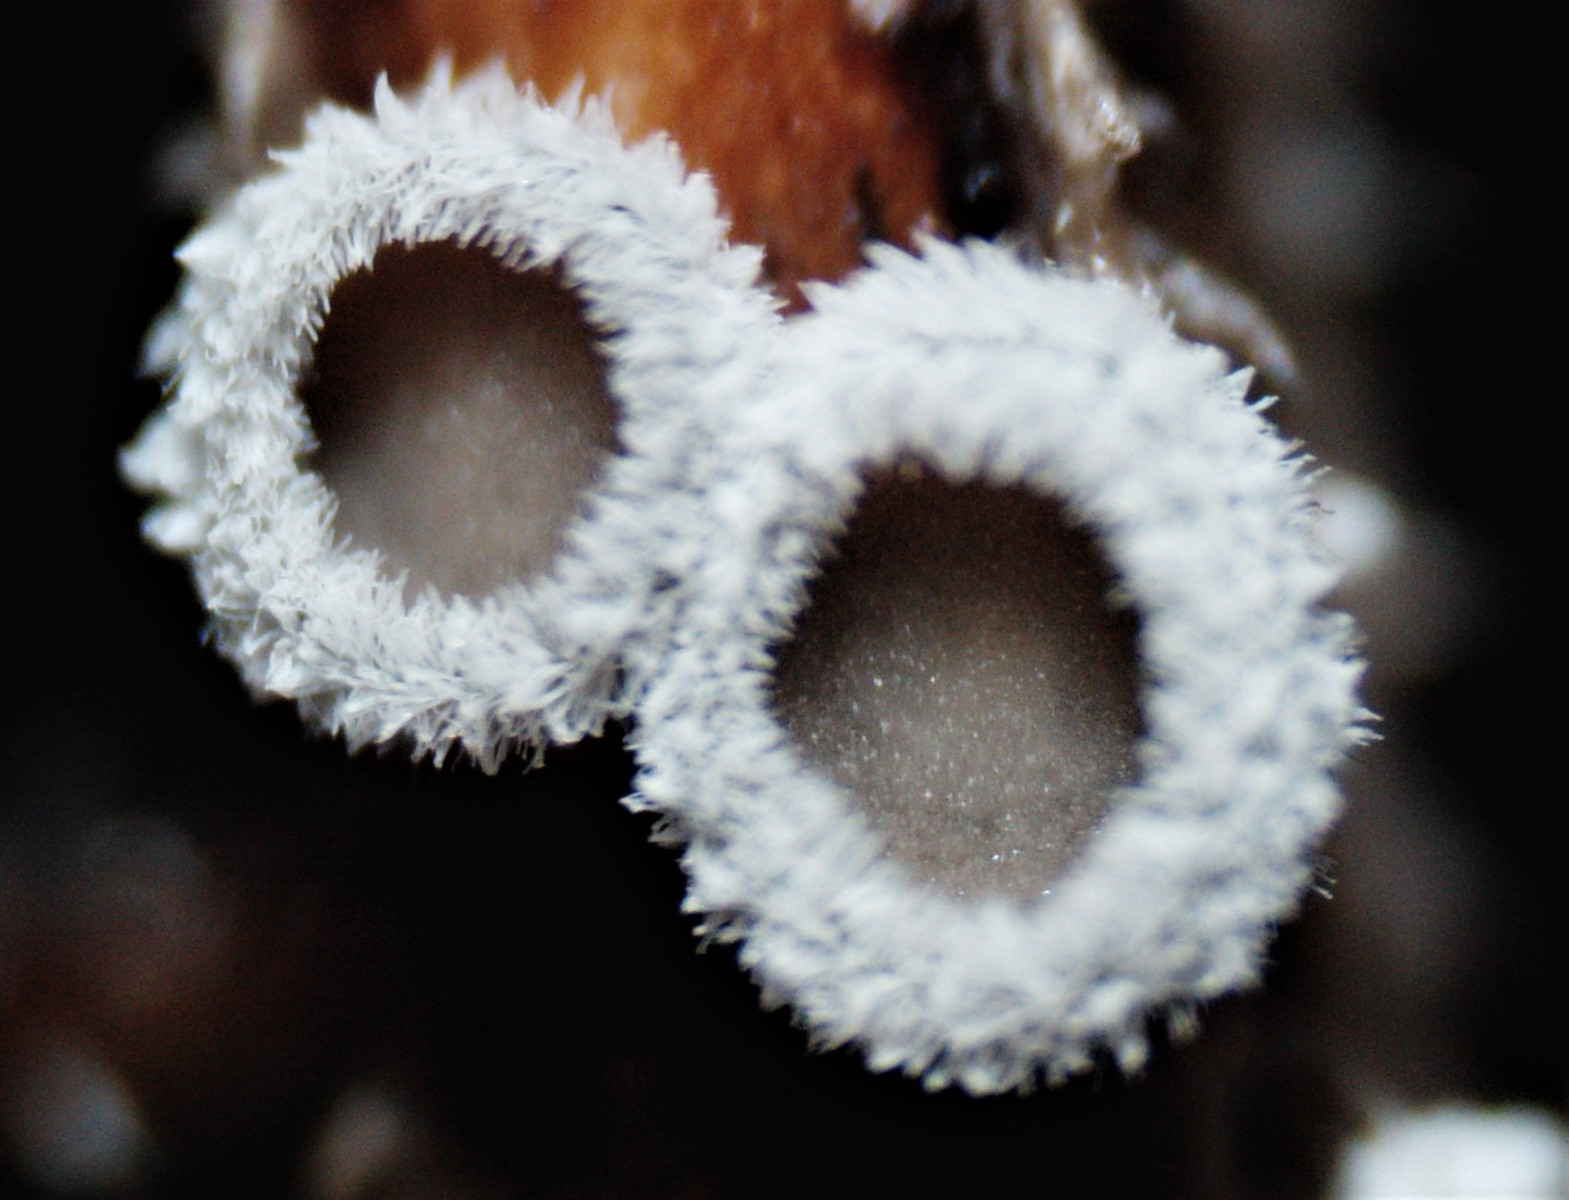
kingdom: Fungi
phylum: Basidiomycota
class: Agaricomycetes
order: Agaricales
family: Niaceae
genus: Lachnella
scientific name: Lachnella alboviolascens
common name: grå frynserede
